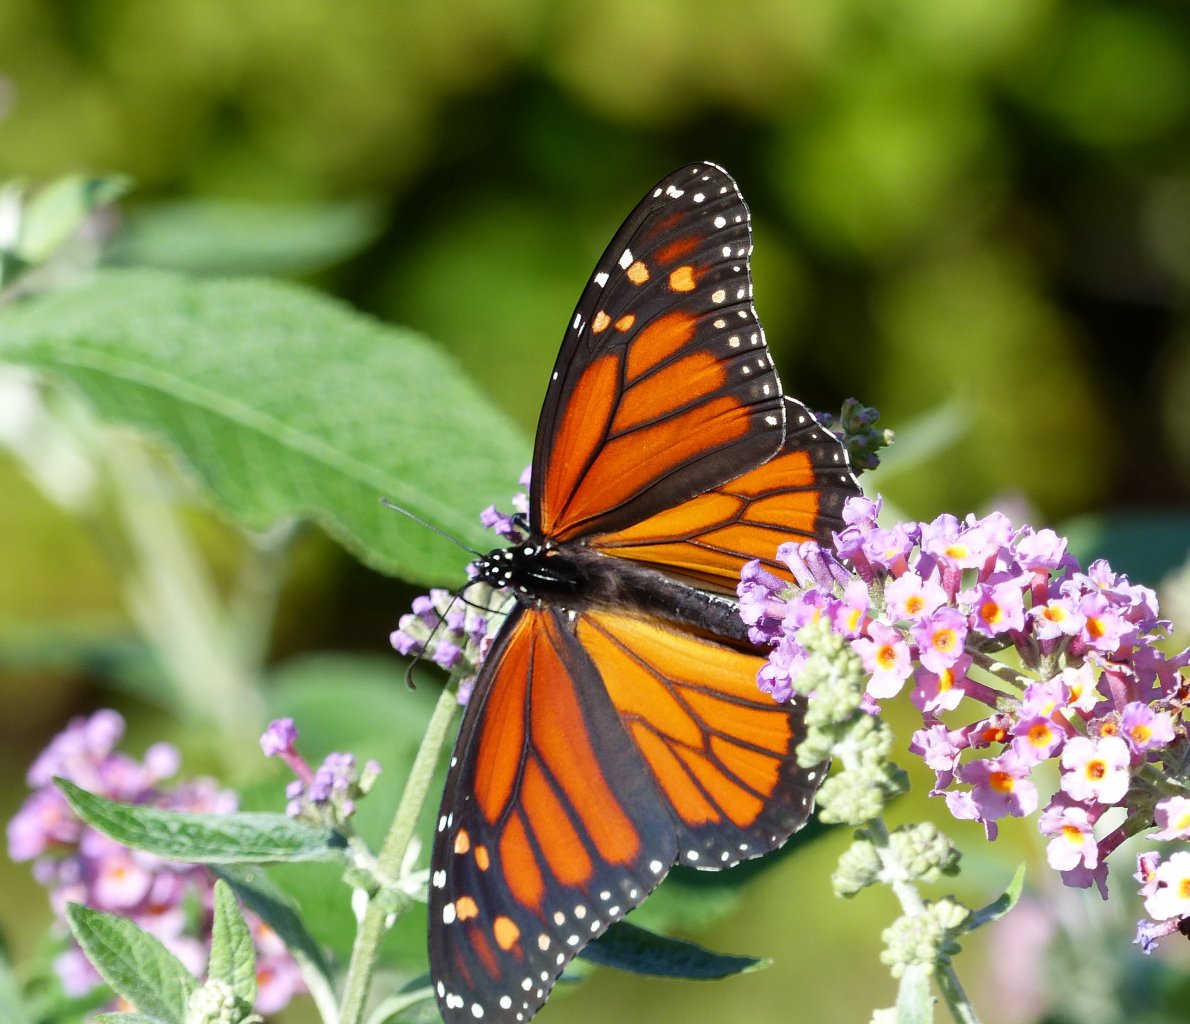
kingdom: Animalia
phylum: Arthropoda
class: Insecta
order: Lepidoptera
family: Nymphalidae
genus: Danaus
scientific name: Danaus plexippus
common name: Monarch
